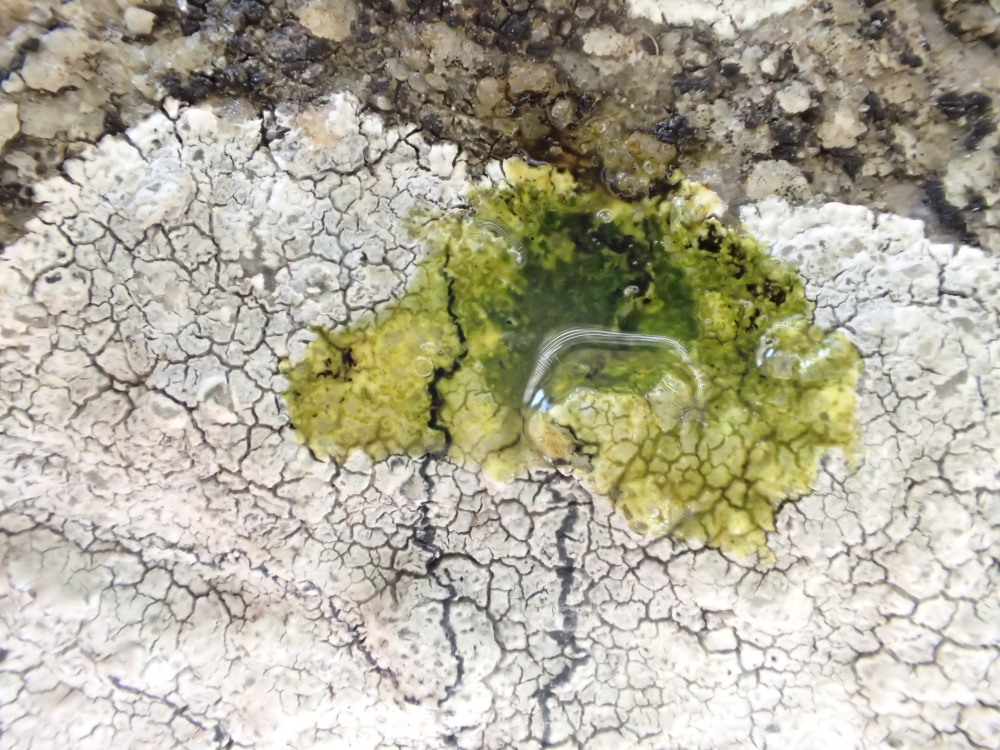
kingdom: Fungi
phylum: Ascomycota
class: Lecanoromycetes
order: Lecanorales
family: Lecanoraceae
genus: Glaucomaria
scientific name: Glaucomaria rupicola
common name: stengærde-kantskivelav
